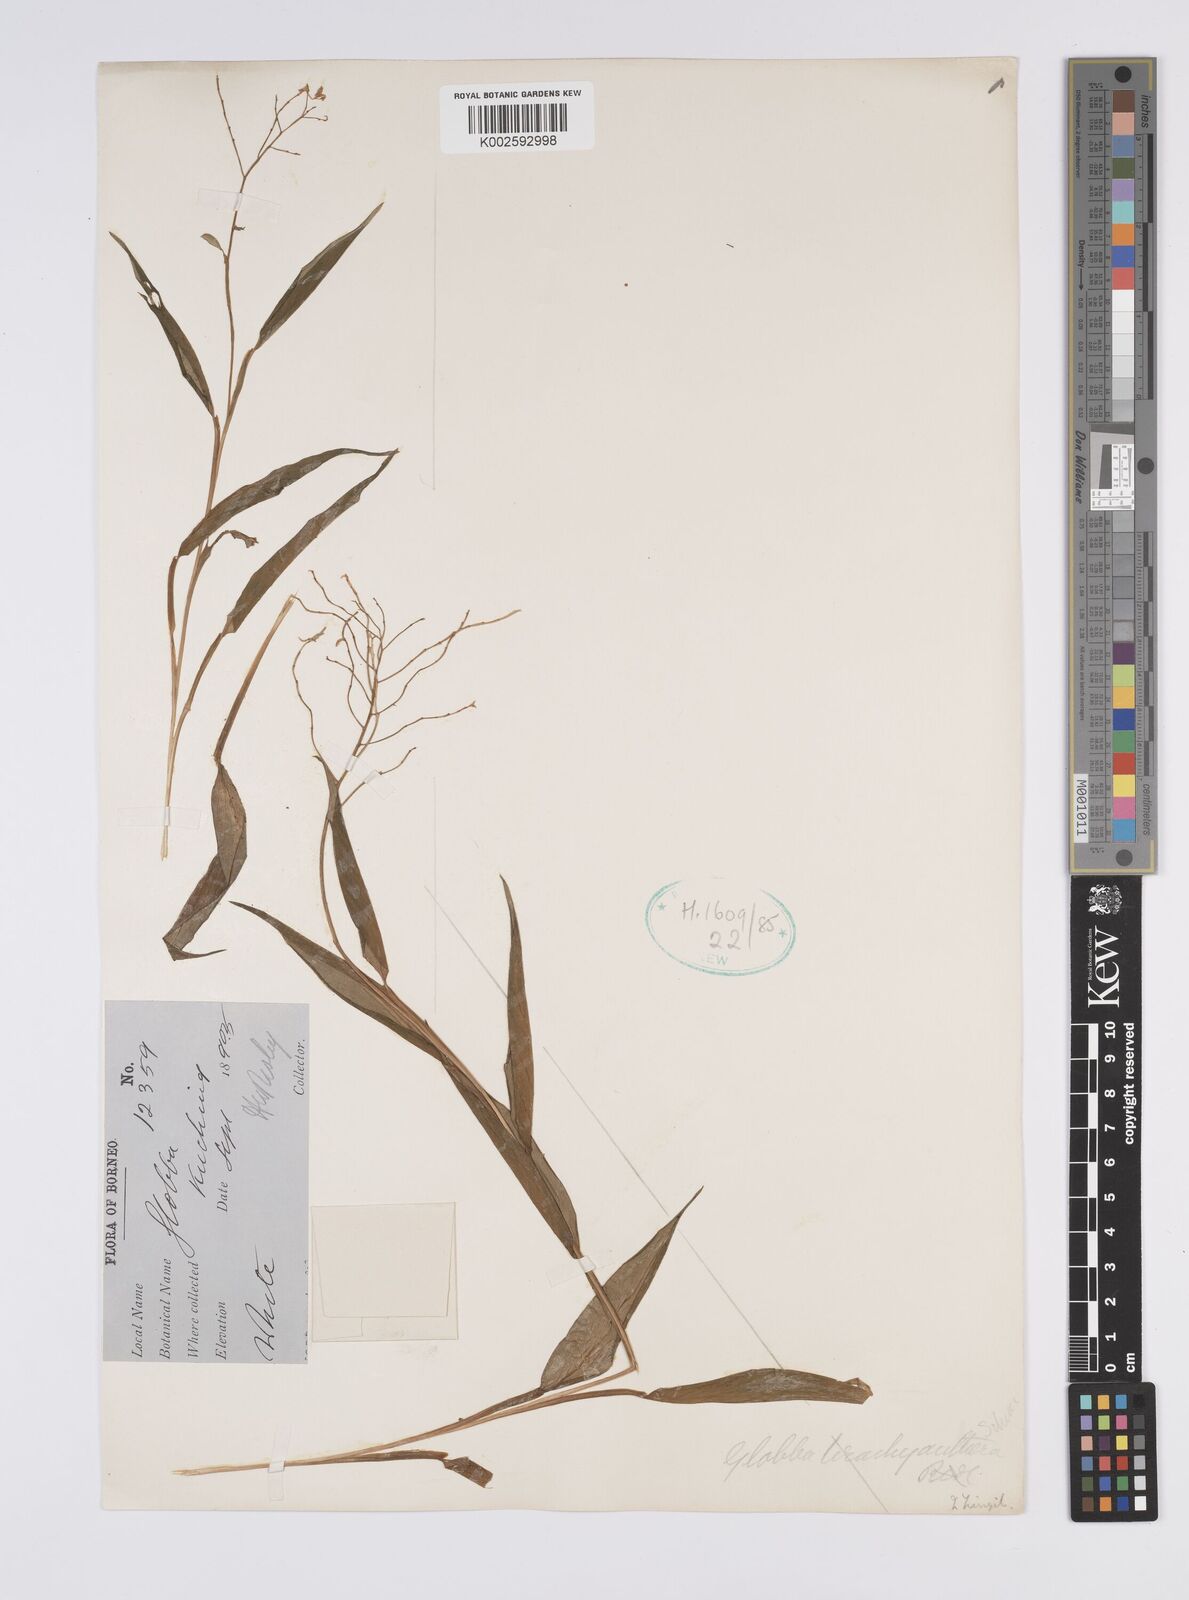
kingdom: Plantae
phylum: Tracheophyta
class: Liliopsida
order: Zingiberales
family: Zingiberaceae
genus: Globba
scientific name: Globba brachyanthera
